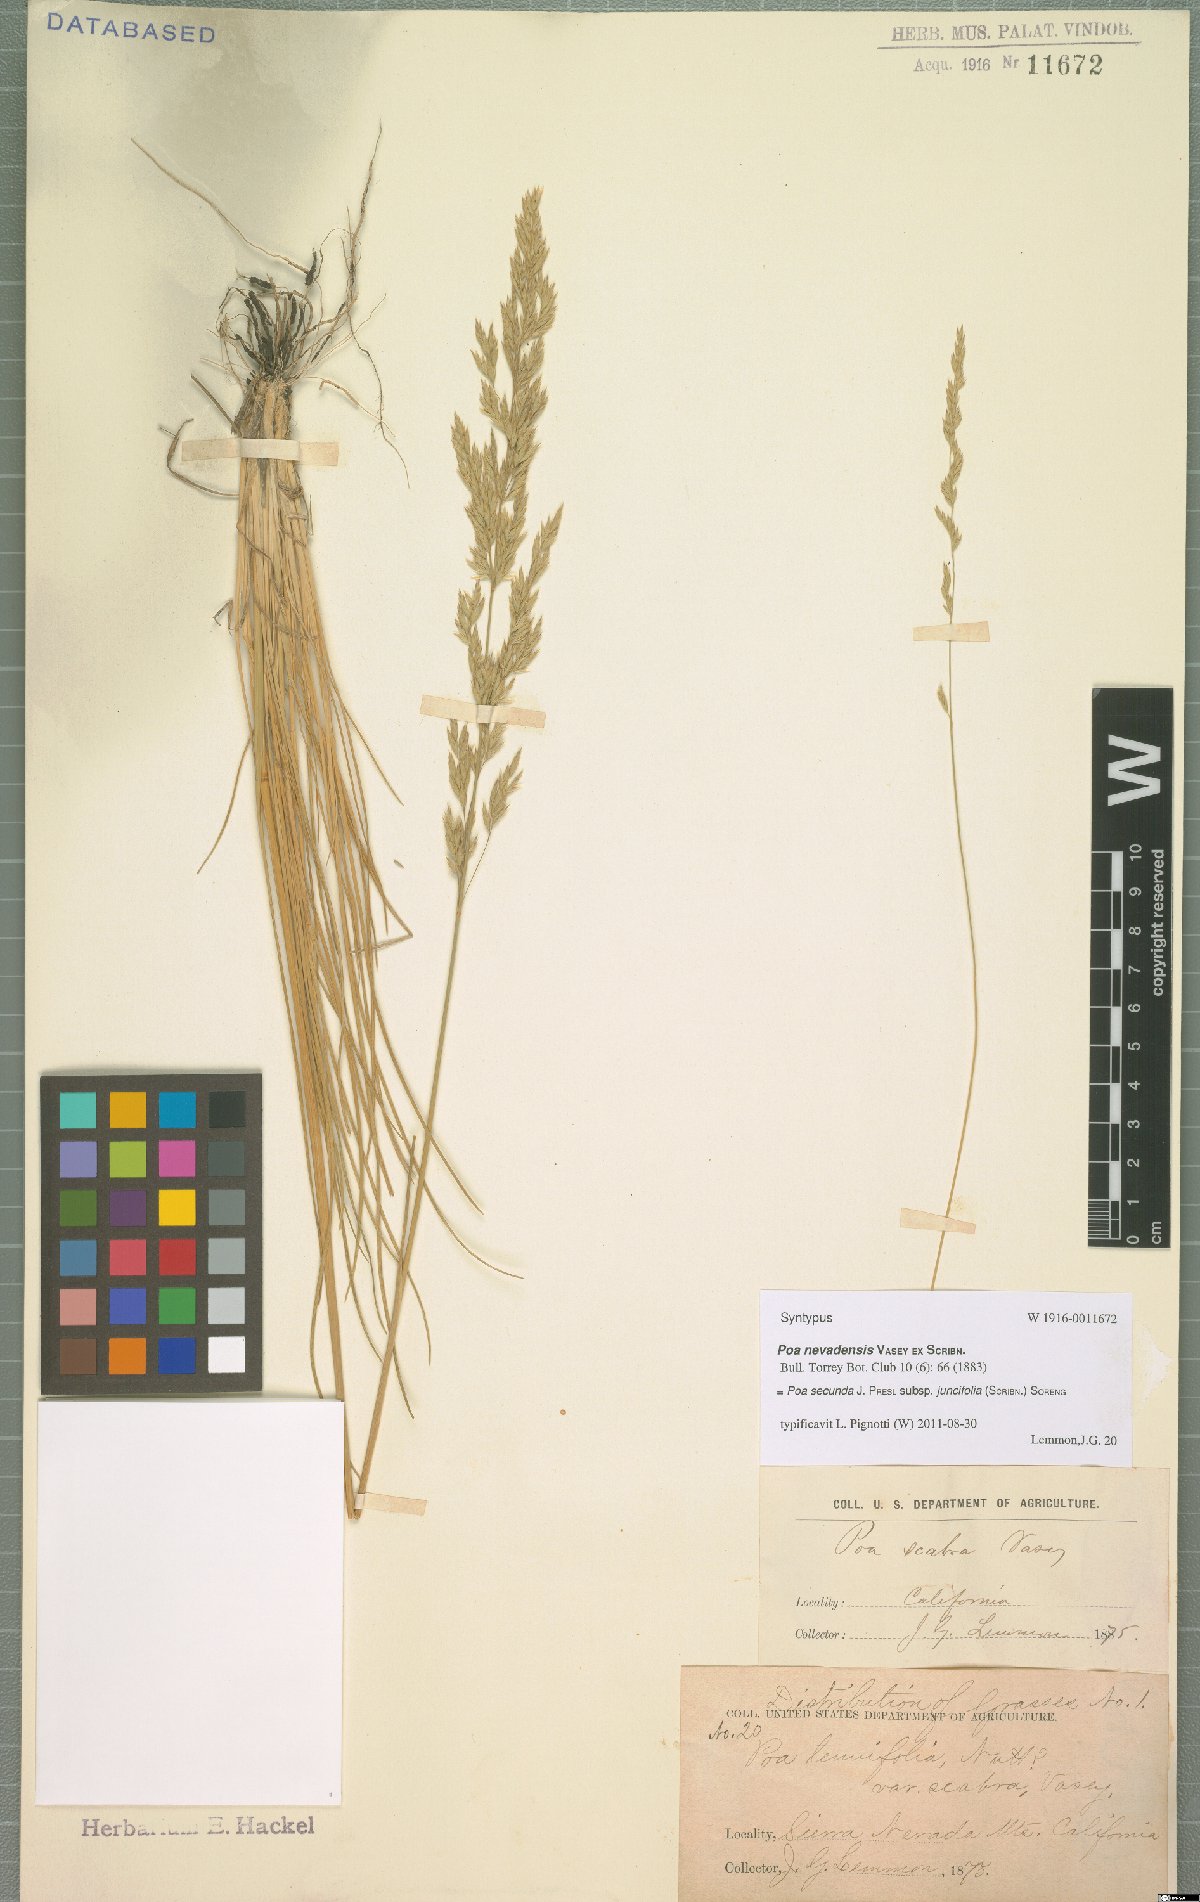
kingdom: Plantae
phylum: Tracheophyta
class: Liliopsida
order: Poales
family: Poaceae
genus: Poa
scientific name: Poa secunda
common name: Sandberg bluegrass
